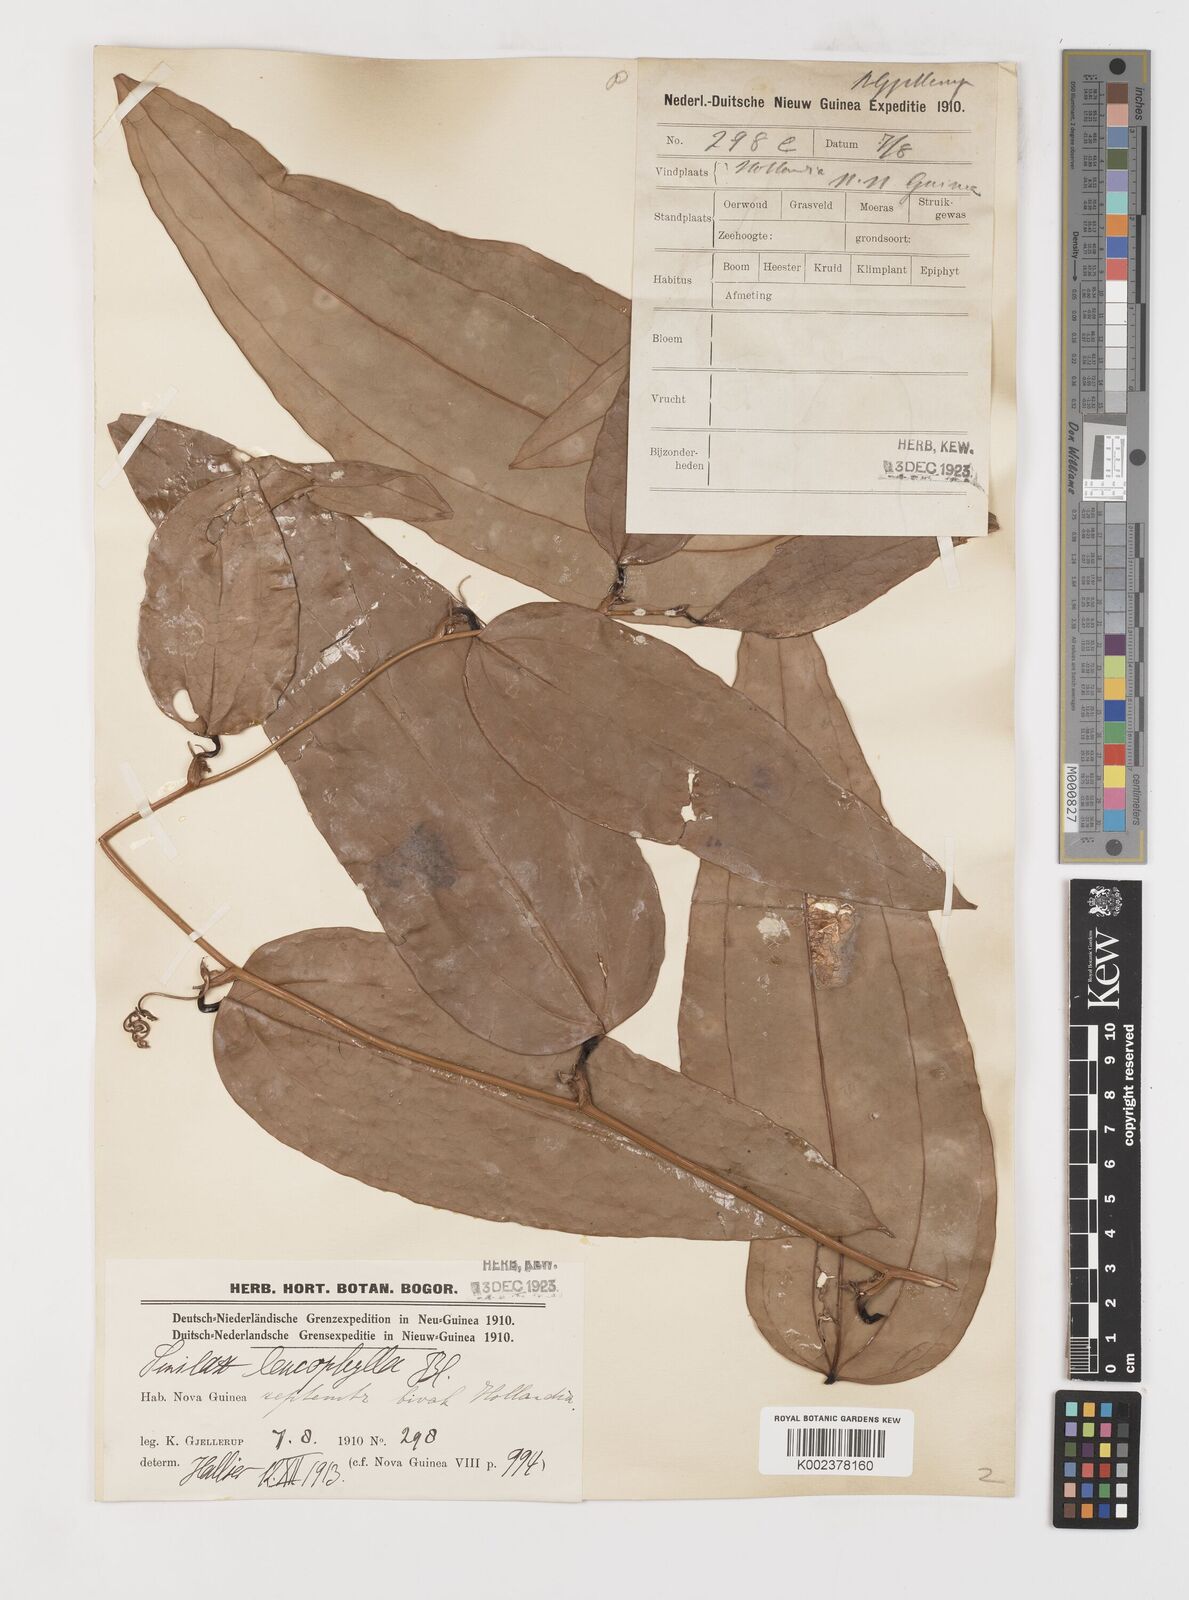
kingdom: Plantae
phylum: Tracheophyta
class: Liliopsida
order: Liliales
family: Smilacaceae
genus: Smilax
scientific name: Smilax leucophylla
